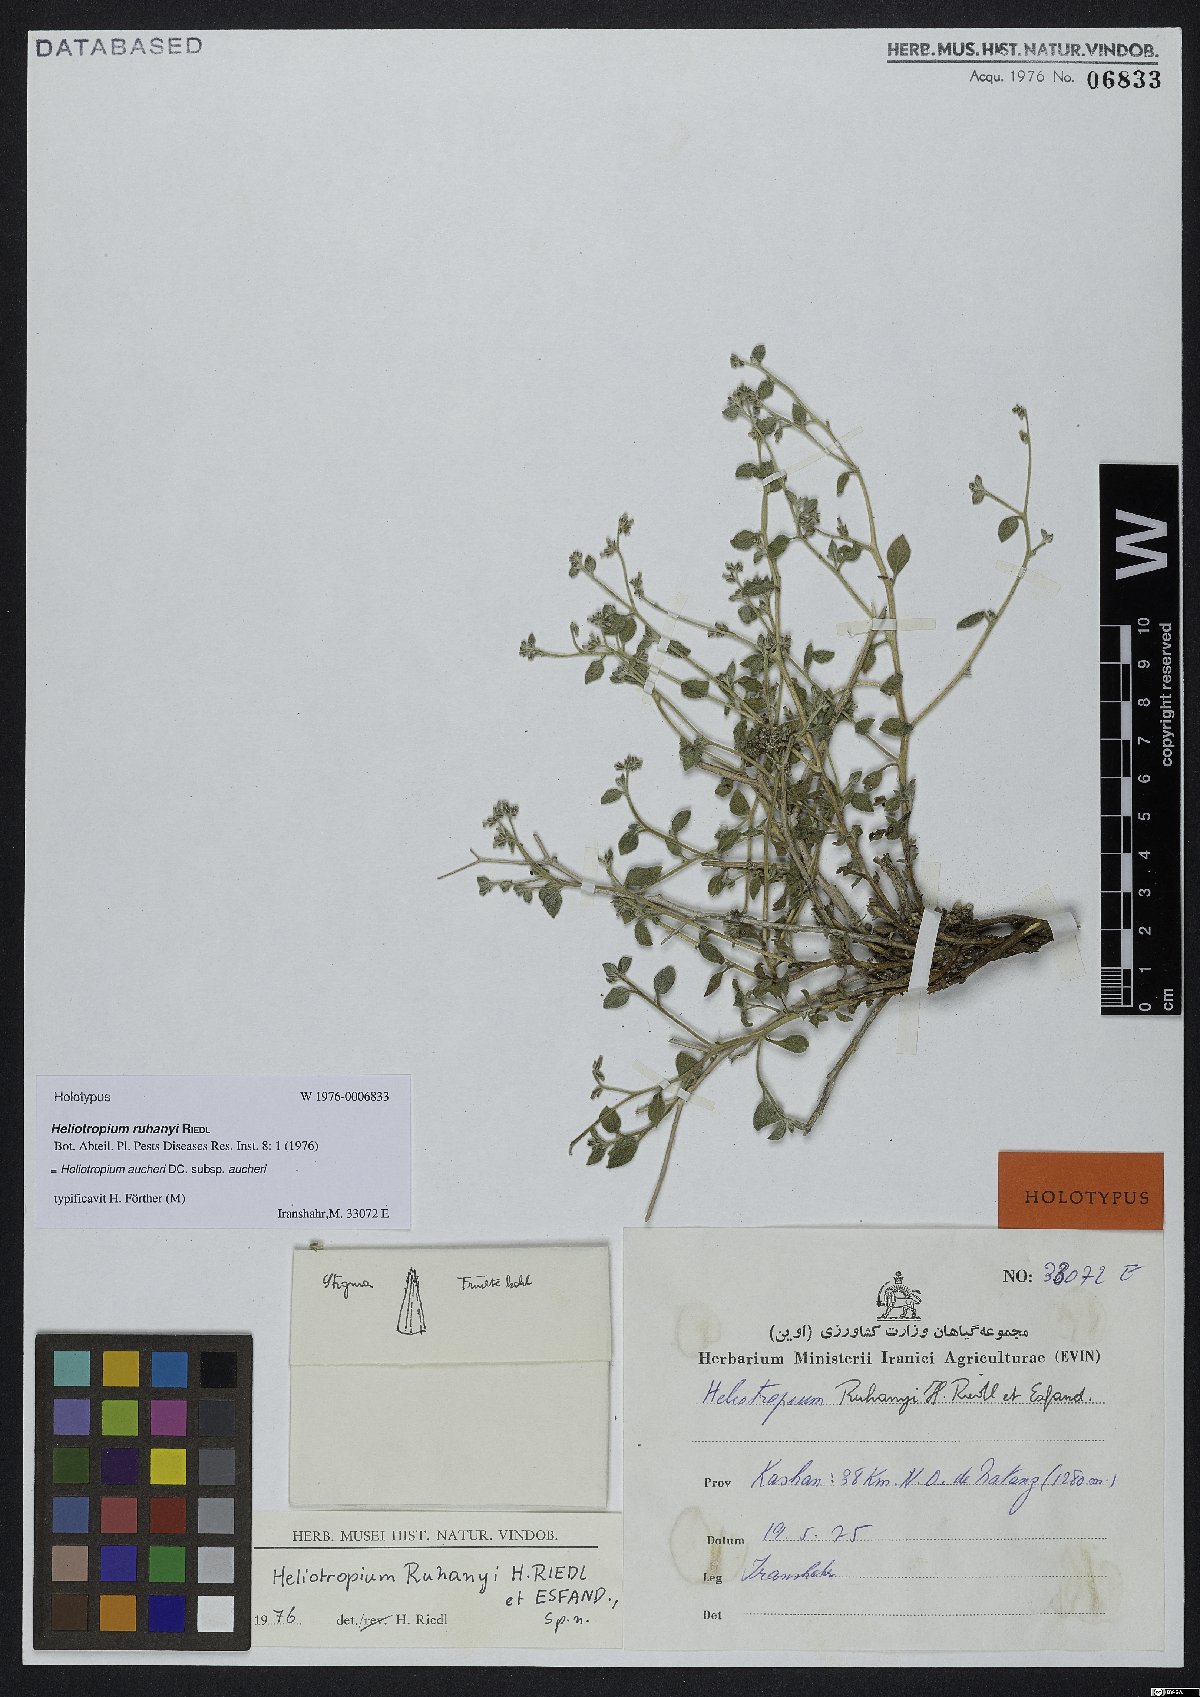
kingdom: Plantae
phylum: Tracheophyta
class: Magnoliopsida
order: Boraginales
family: Heliotropiaceae
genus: Heliotropium
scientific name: Heliotropium aucheri
